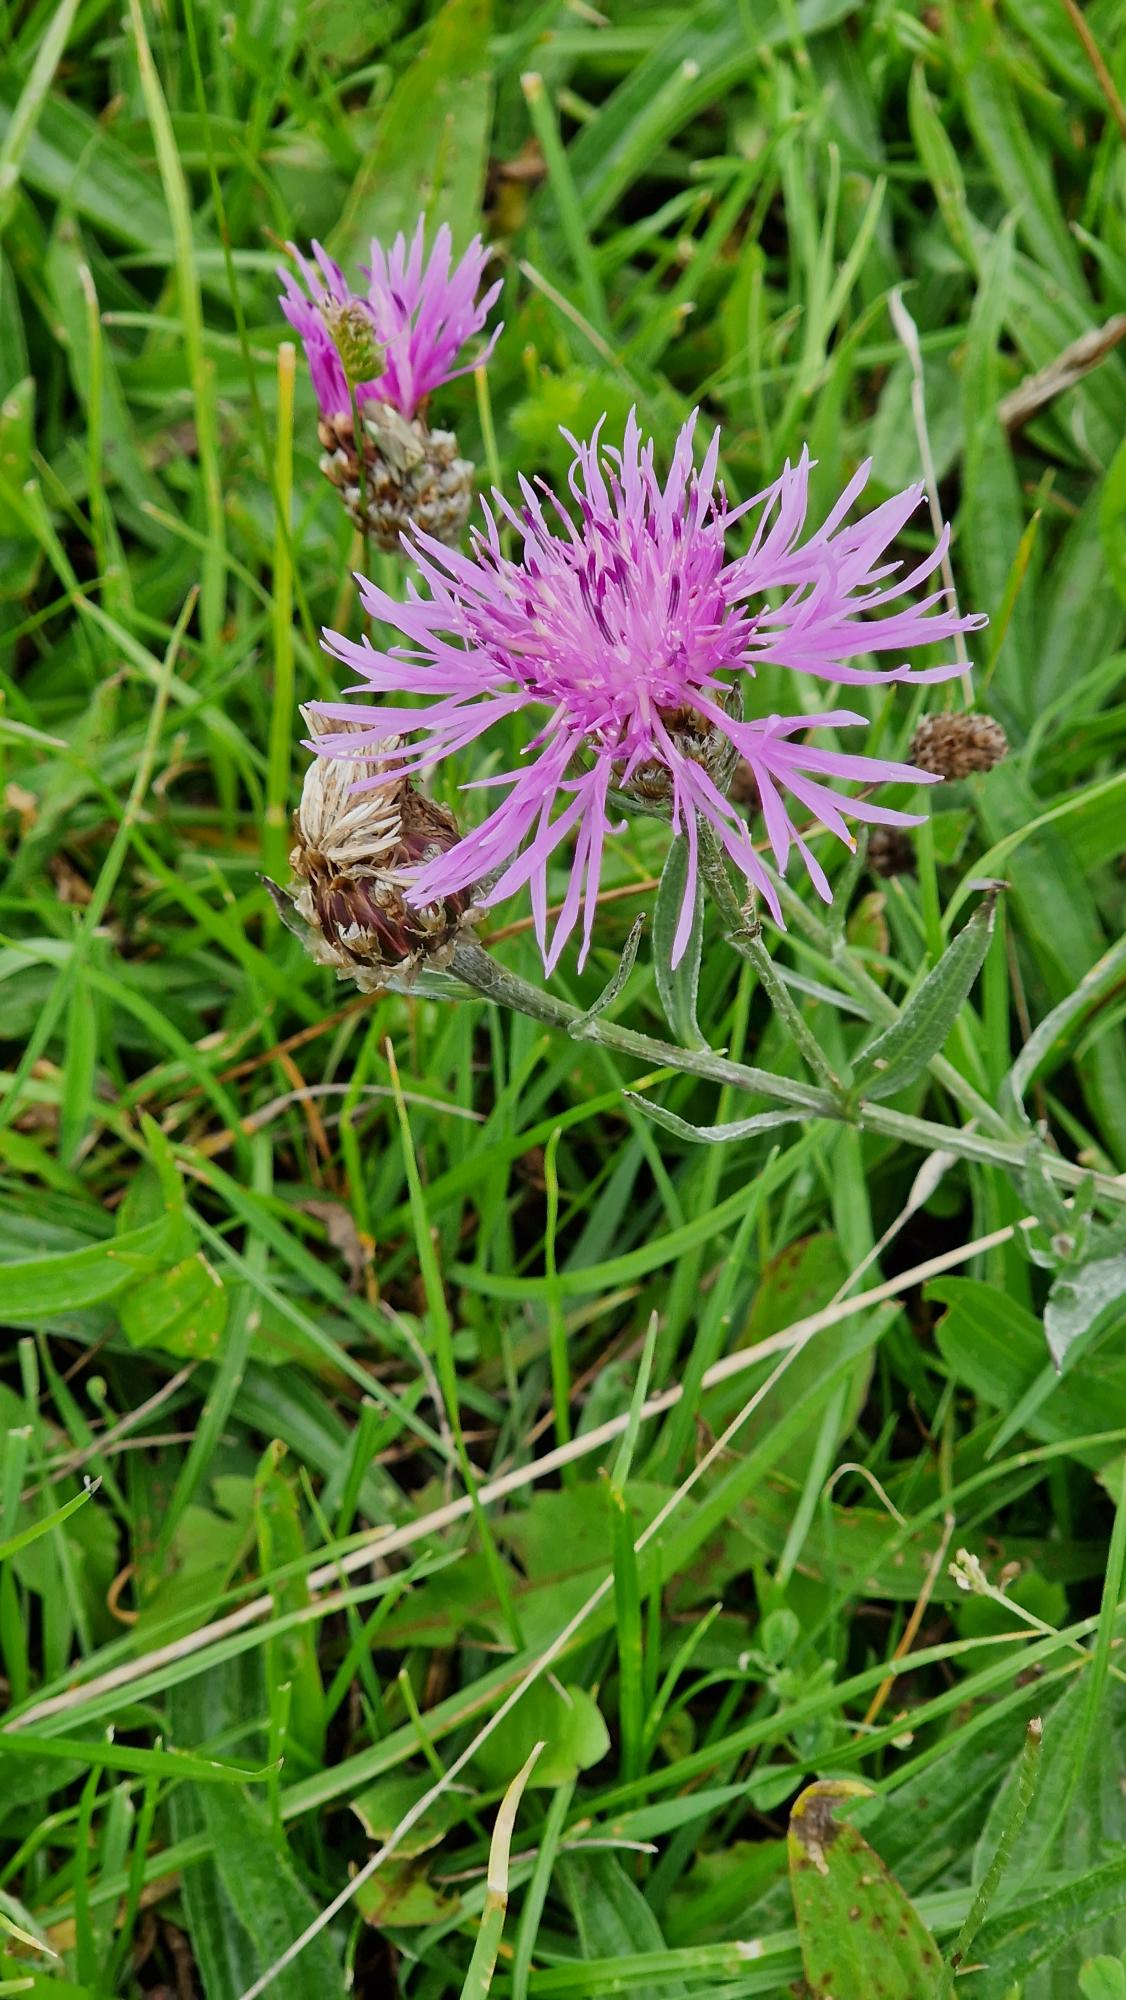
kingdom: Plantae
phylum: Tracheophyta
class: Magnoliopsida
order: Asterales
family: Asteraceae
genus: Centaurea
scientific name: Centaurea jacea
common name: Almindelig knopurt
